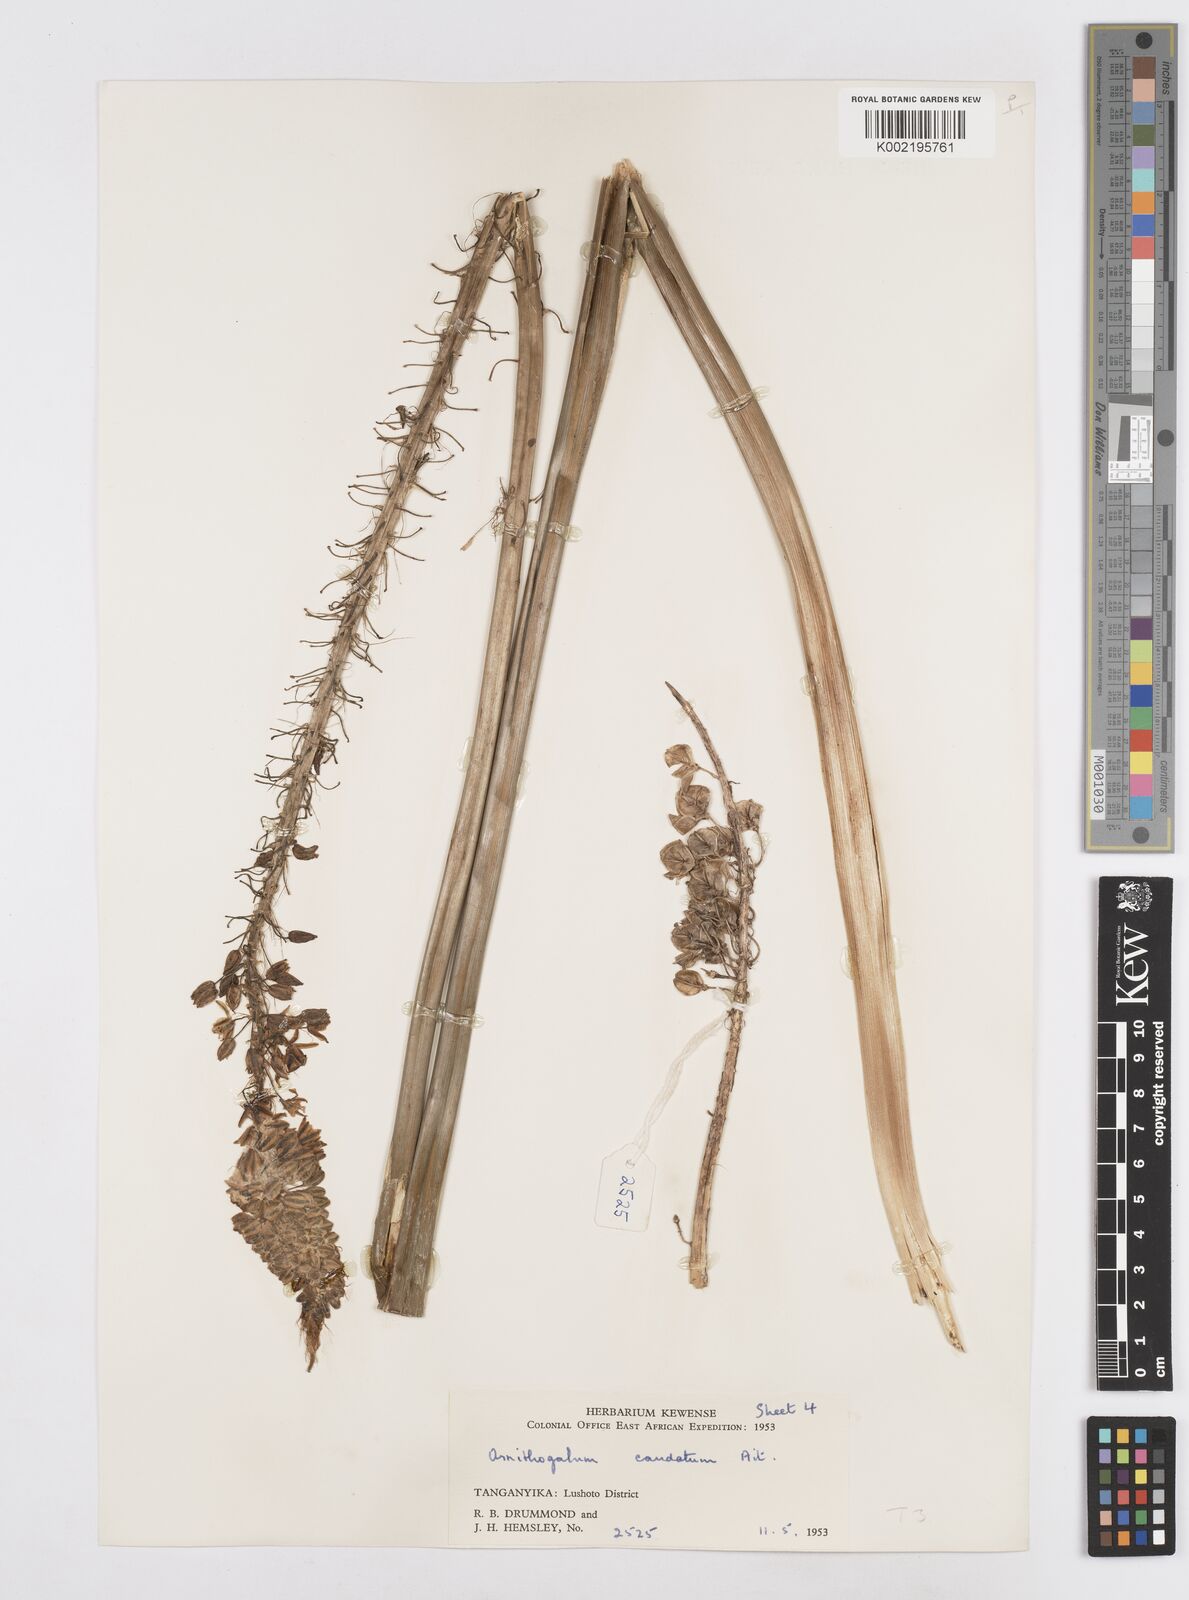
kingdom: Plantae
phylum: Tracheophyta
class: Liliopsida
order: Asparagales
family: Asparagaceae
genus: Albuca
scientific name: Albuca virens
